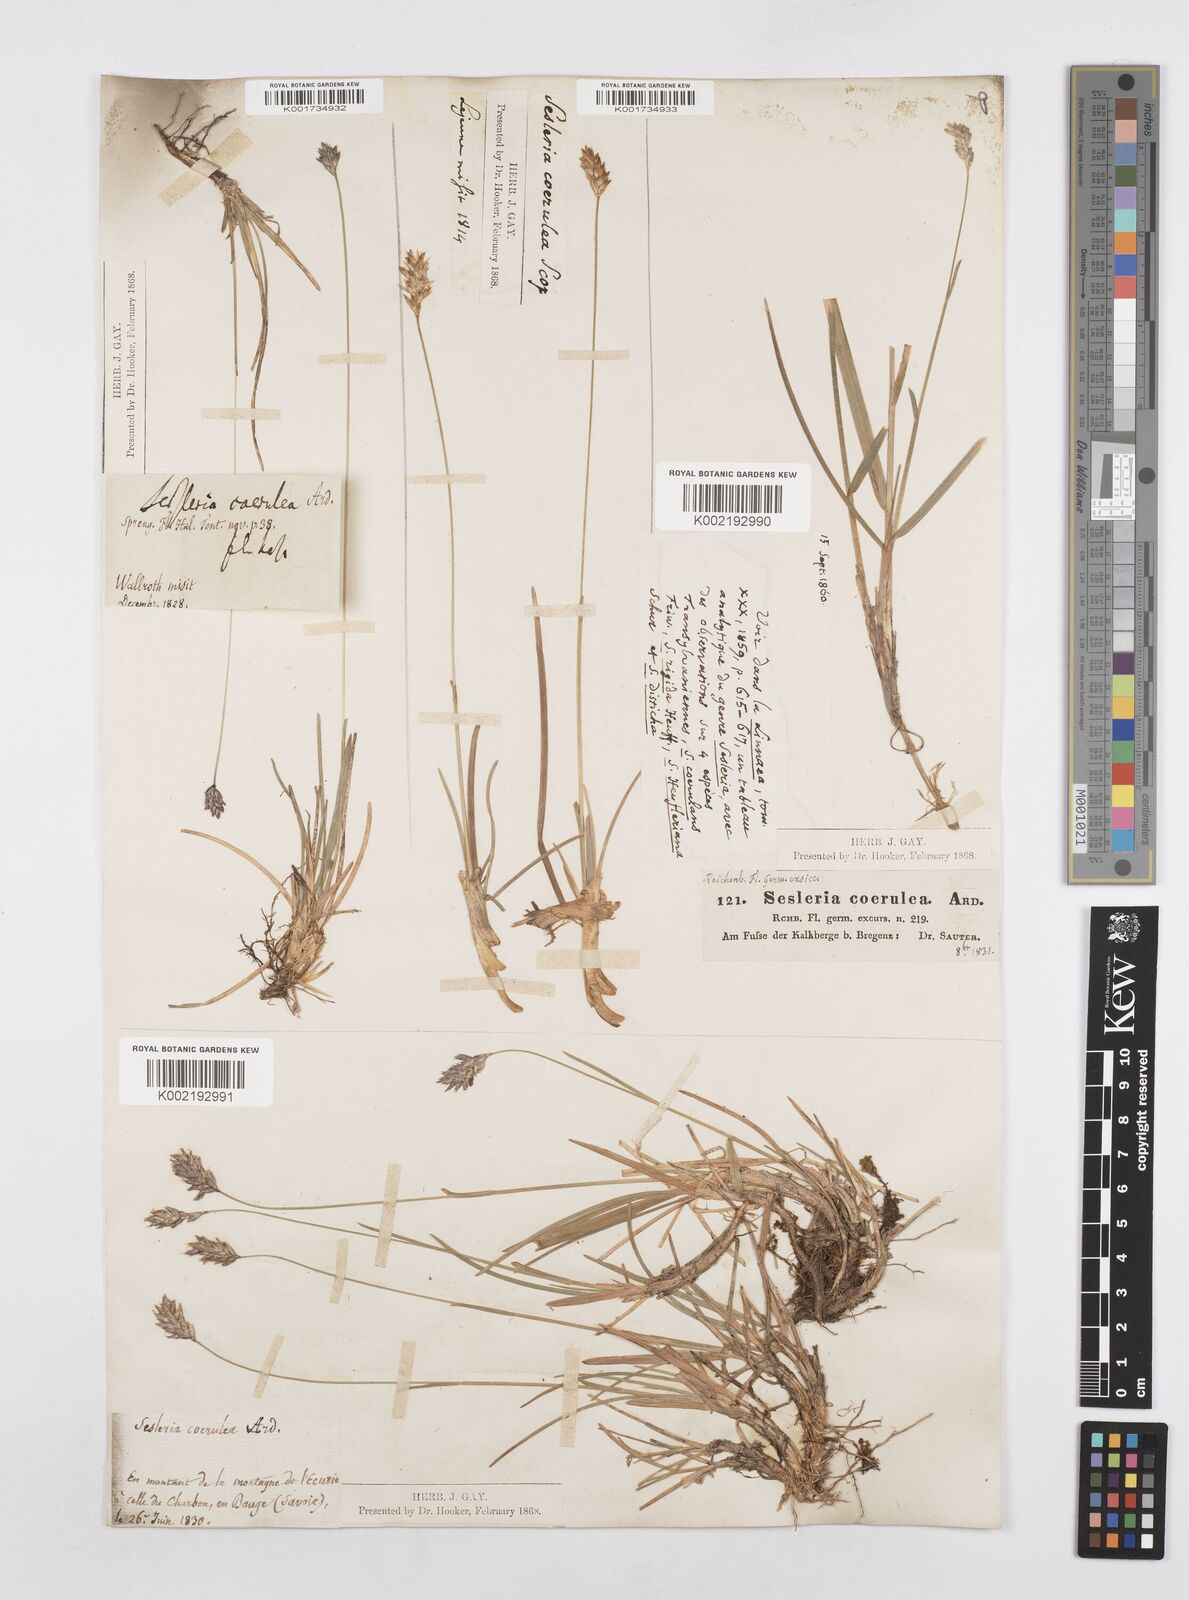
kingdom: Plantae
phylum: Tracheophyta
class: Liliopsida
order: Poales
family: Poaceae
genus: Sesleria
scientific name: Sesleria caerulea
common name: Blue moor-grass
